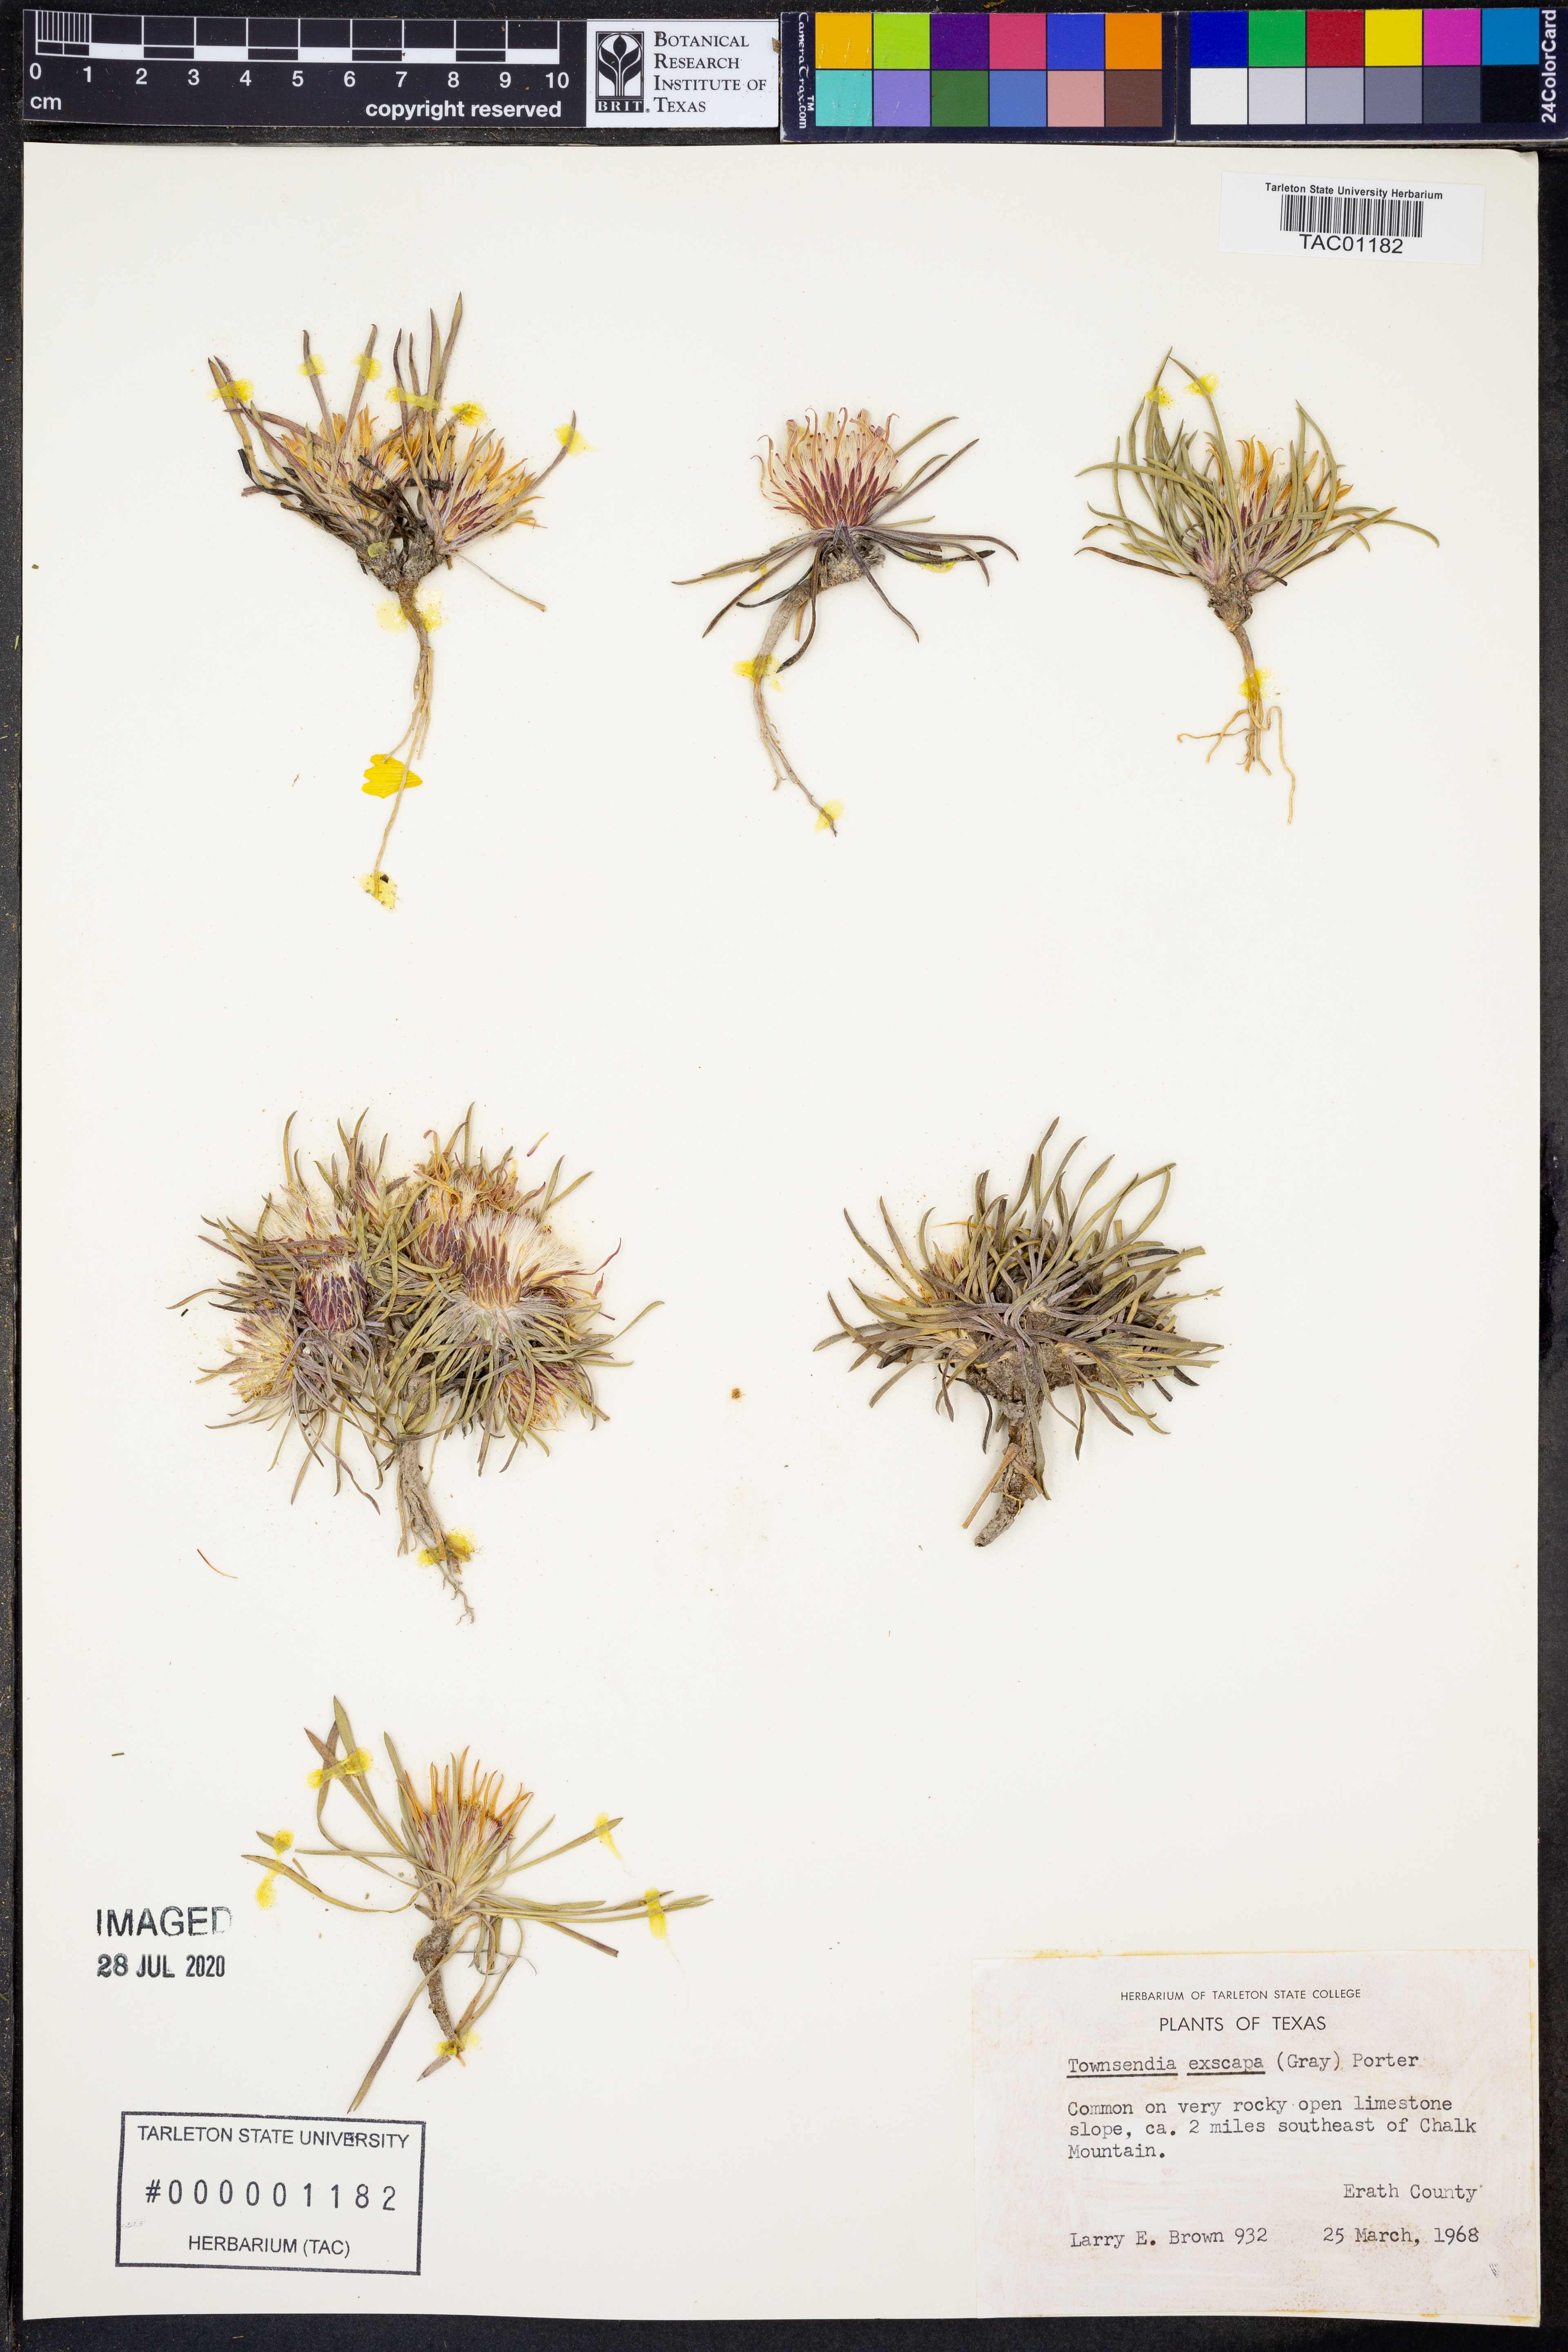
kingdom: Plantae
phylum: Tracheophyta
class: Magnoliopsida
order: Asterales
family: Asteraceae
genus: Townsendia
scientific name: Townsendia exscapa
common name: Dwarf townsendia
